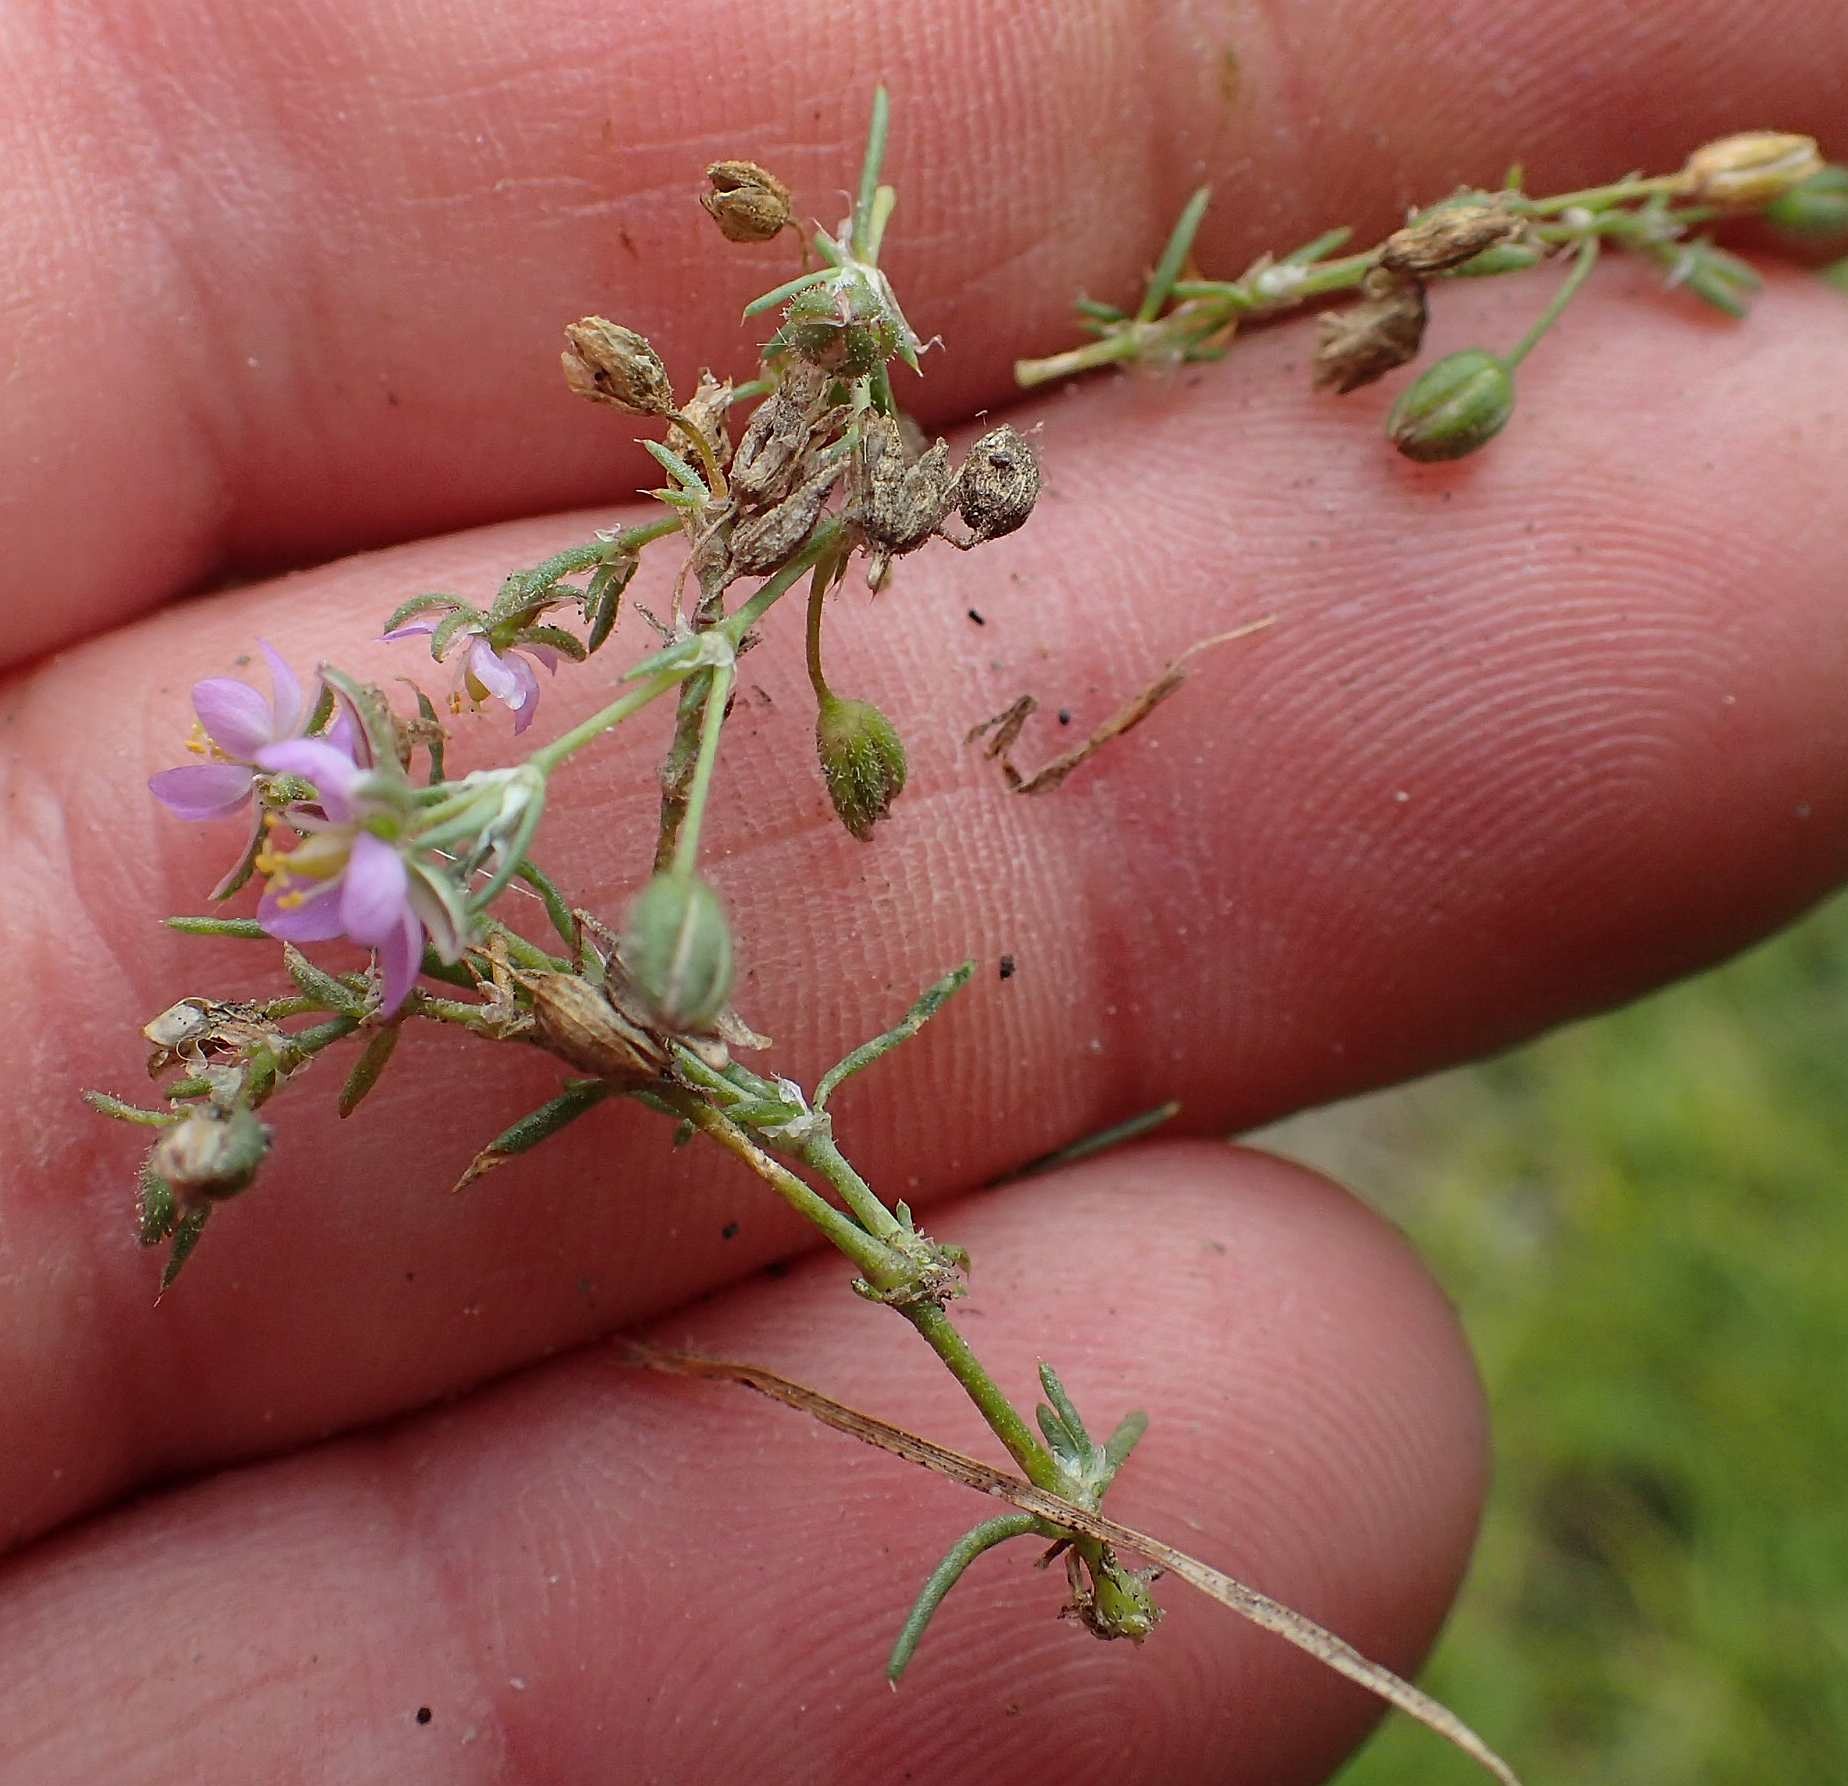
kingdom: Plantae
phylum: Tracheophyta
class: Magnoliopsida
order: Caryophyllales
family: Caryophyllaceae
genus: Spergularia
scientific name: Spergularia rubra
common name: Mark-hindeknæ
